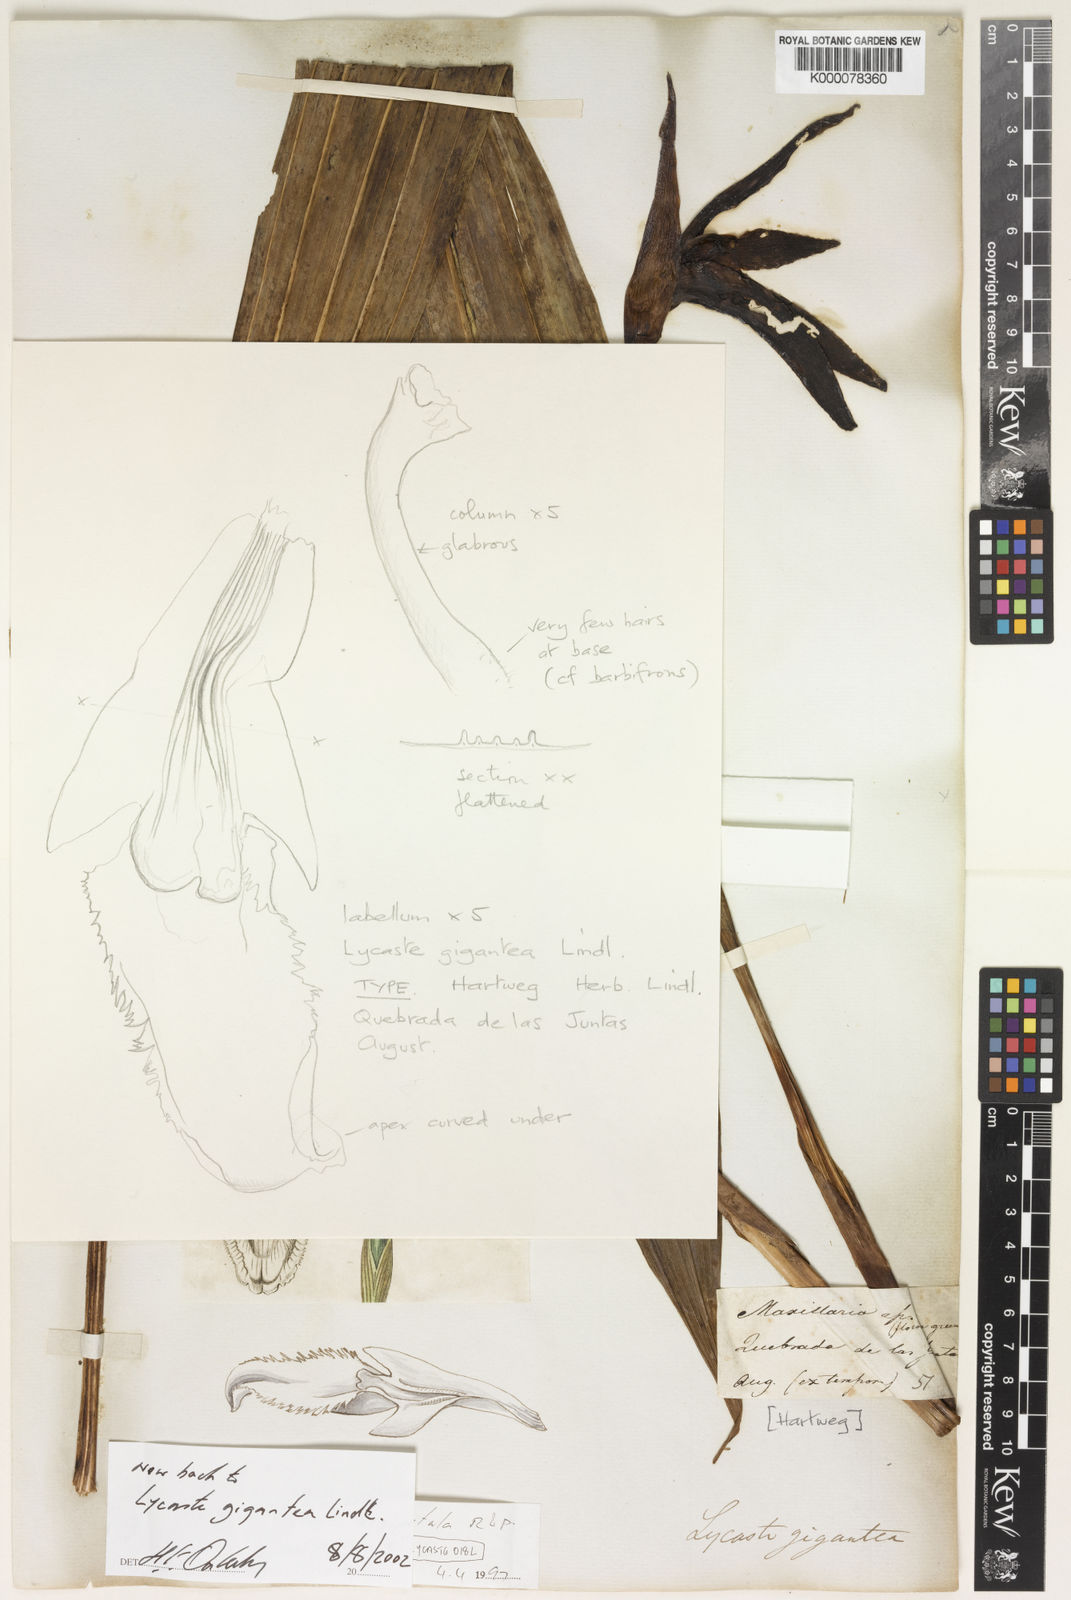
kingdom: Plantae
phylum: Tracheophyta
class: Liliopsida
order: Asparagales
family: Orchidaceae
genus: Ida
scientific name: Ida gigantea
